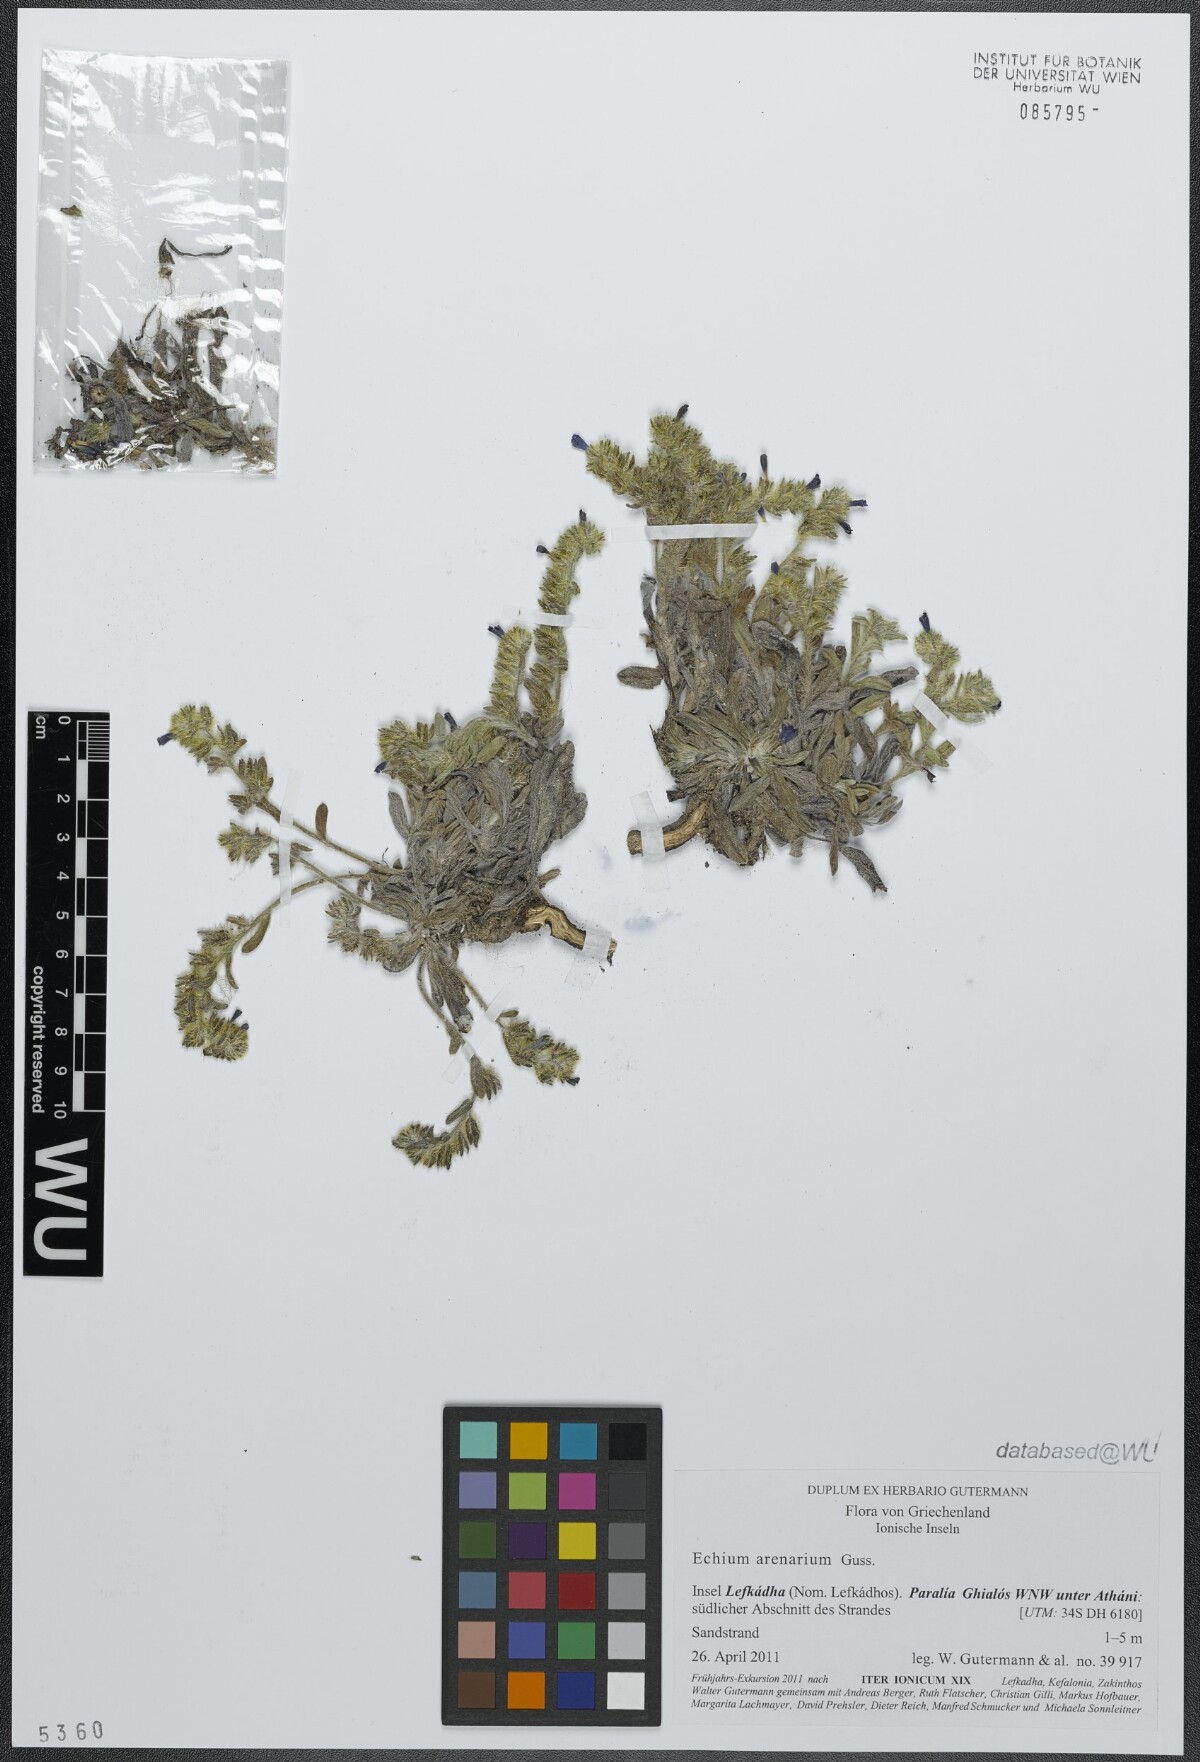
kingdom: Plantae
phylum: Tracheophyta
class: Magnoliopsida
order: Boraginales
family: Boraginaceae
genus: Echium
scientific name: Echium arenarium
